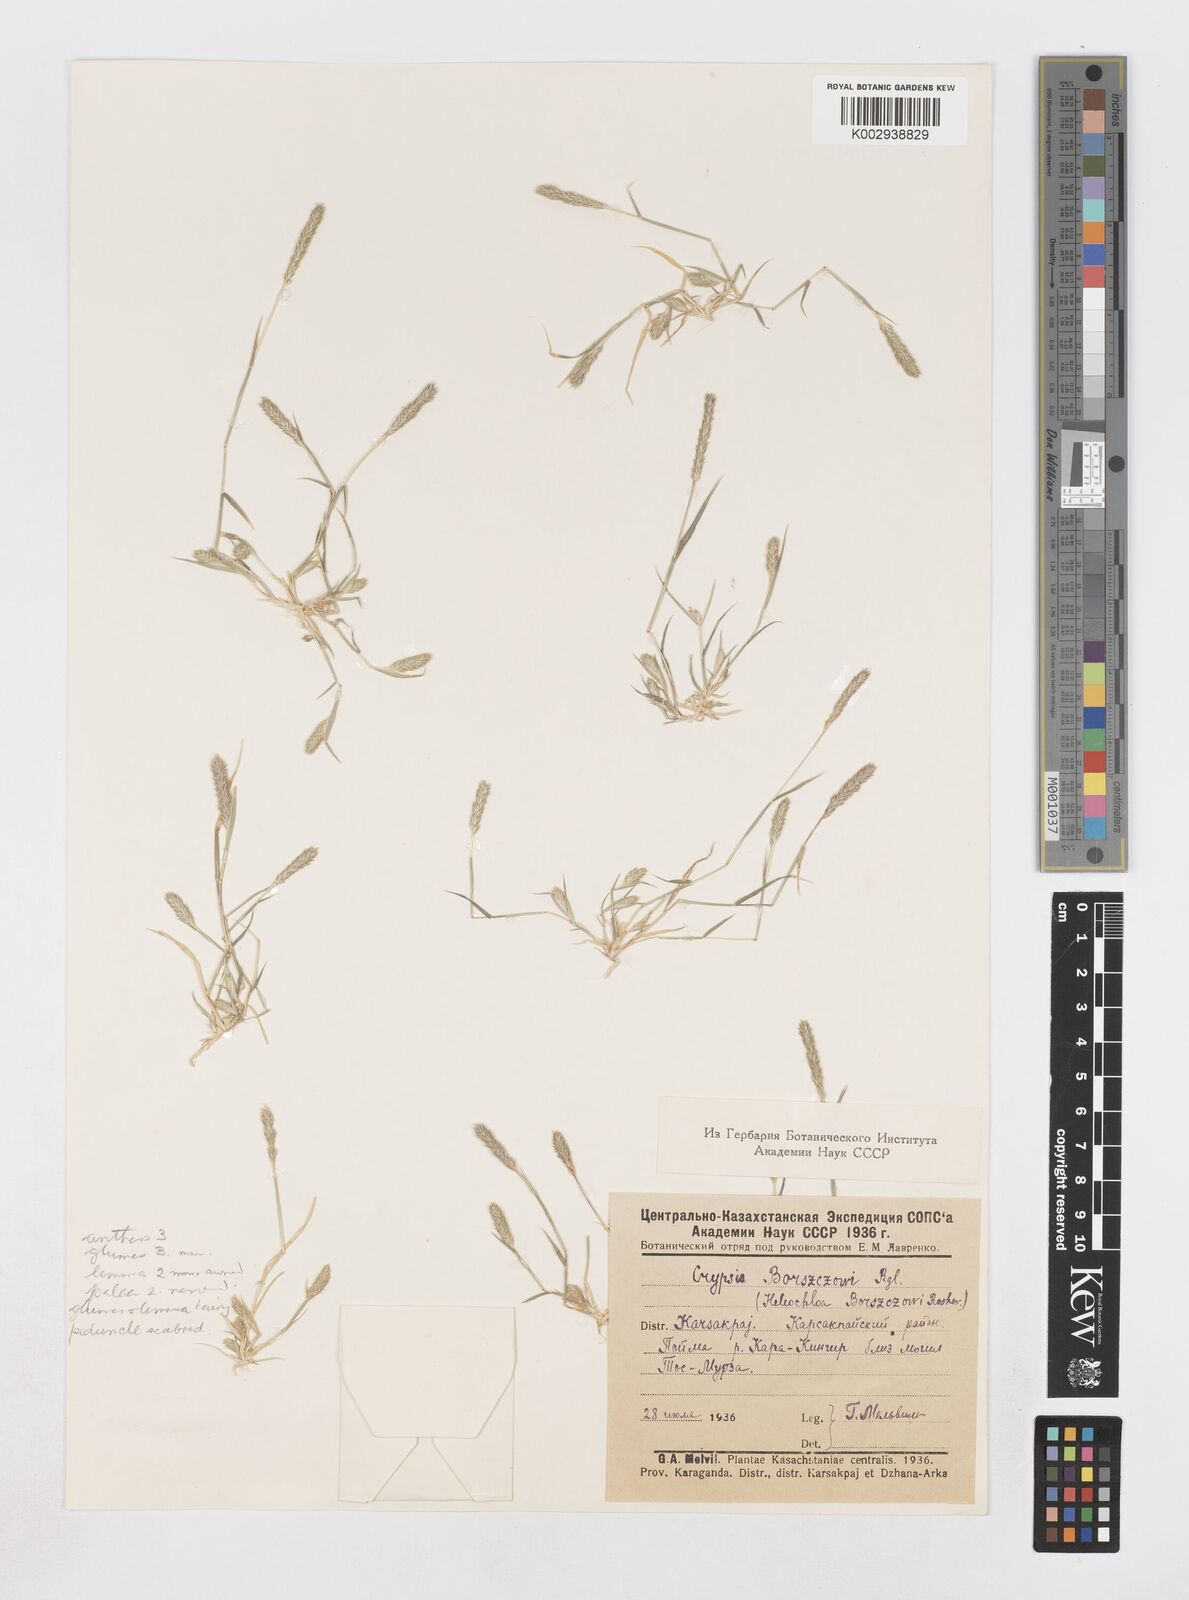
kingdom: Plantae
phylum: Tracheophyta
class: Liliopsida
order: Poales
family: Poaceae
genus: Sporobolus
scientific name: Sporobolus borszczowii
